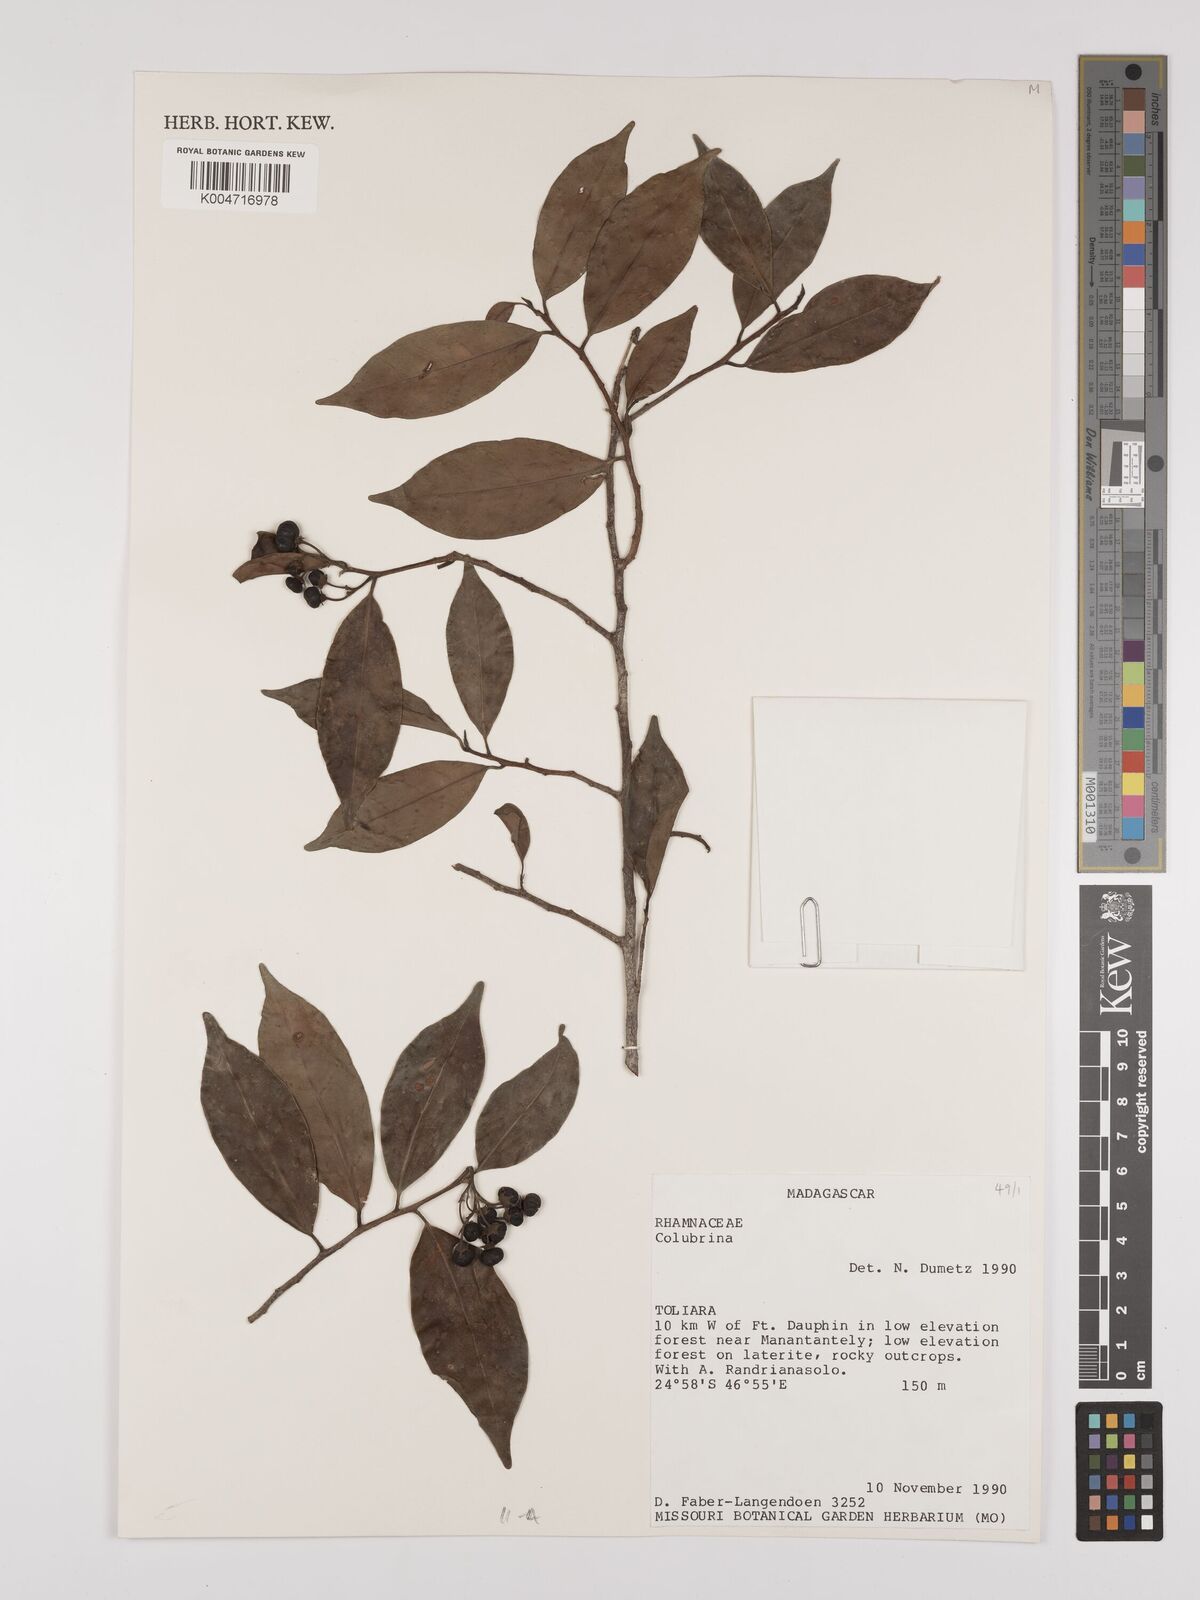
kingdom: Plantae
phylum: Tracheophyta
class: Magnoliopsida
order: Rosales
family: Rhamnaceae
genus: Colubrina
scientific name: Colubrina
